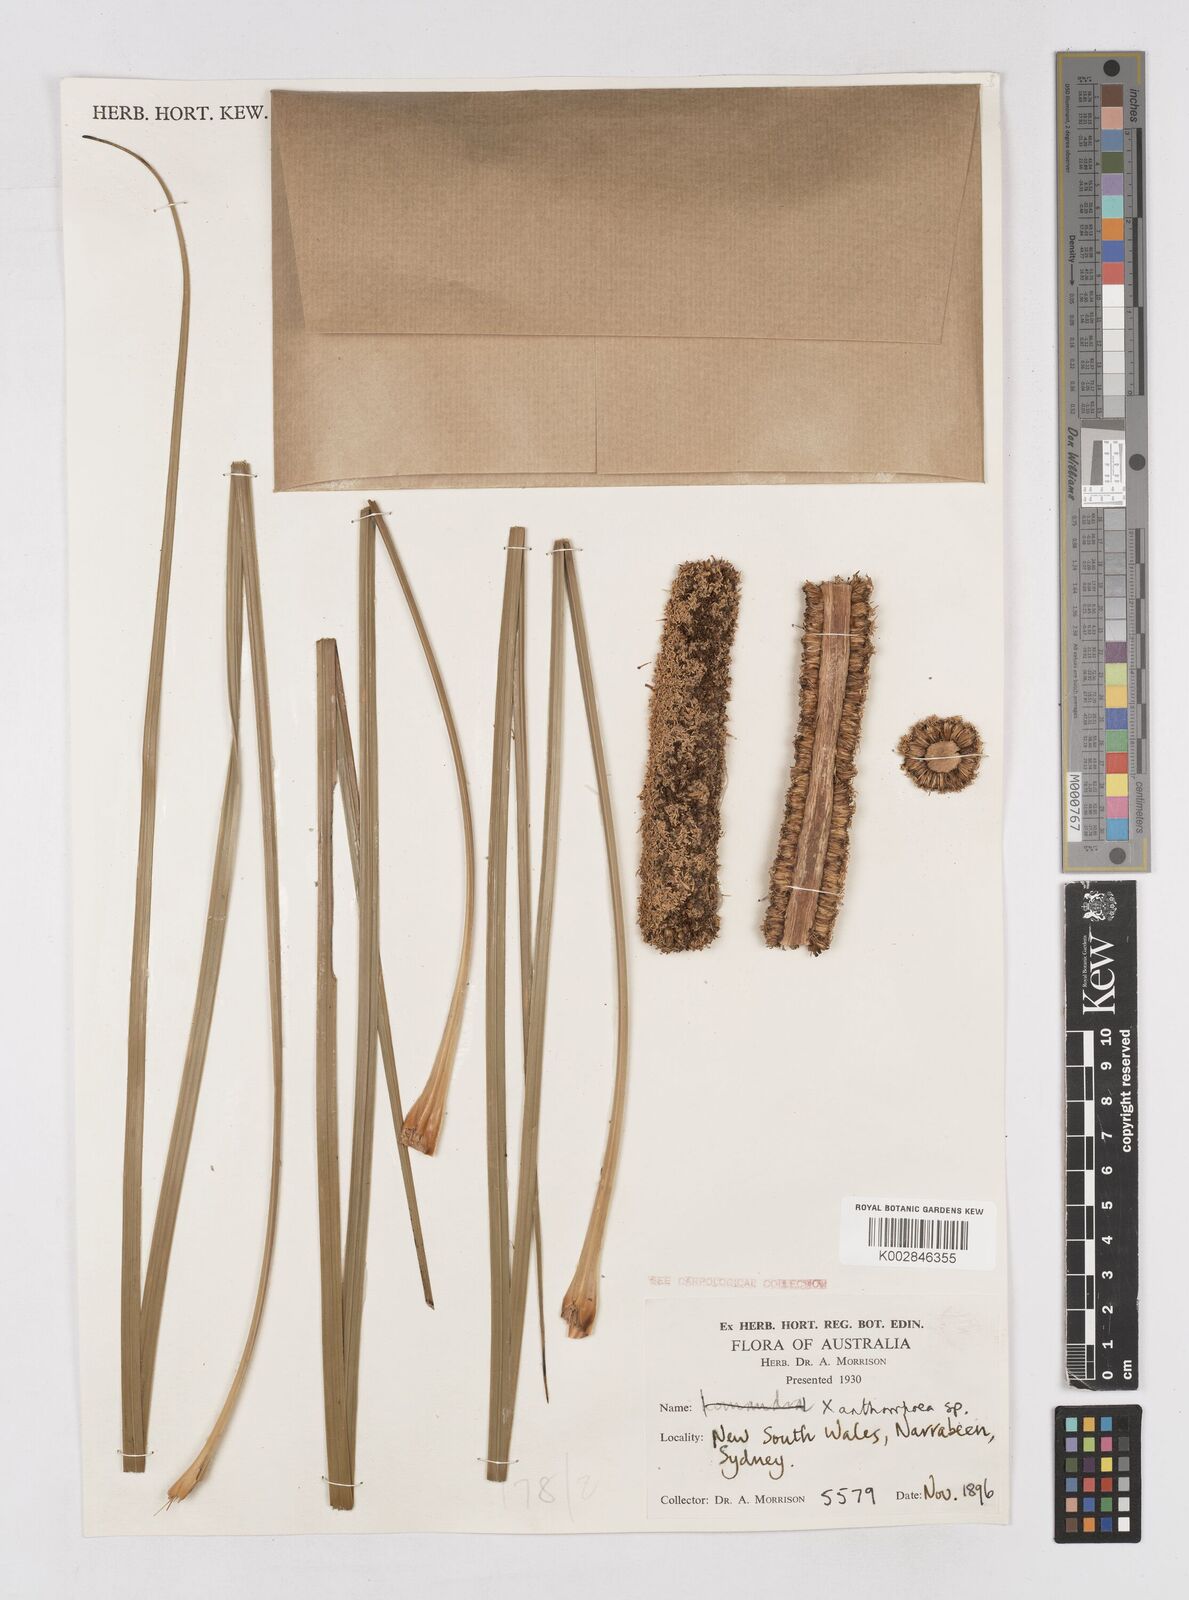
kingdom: Plantae
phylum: Tracheophyta
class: Liliopsida
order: Asparagales
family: Asphodelaceae
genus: Xanthorrhoea
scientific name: Xanthorrhoea
